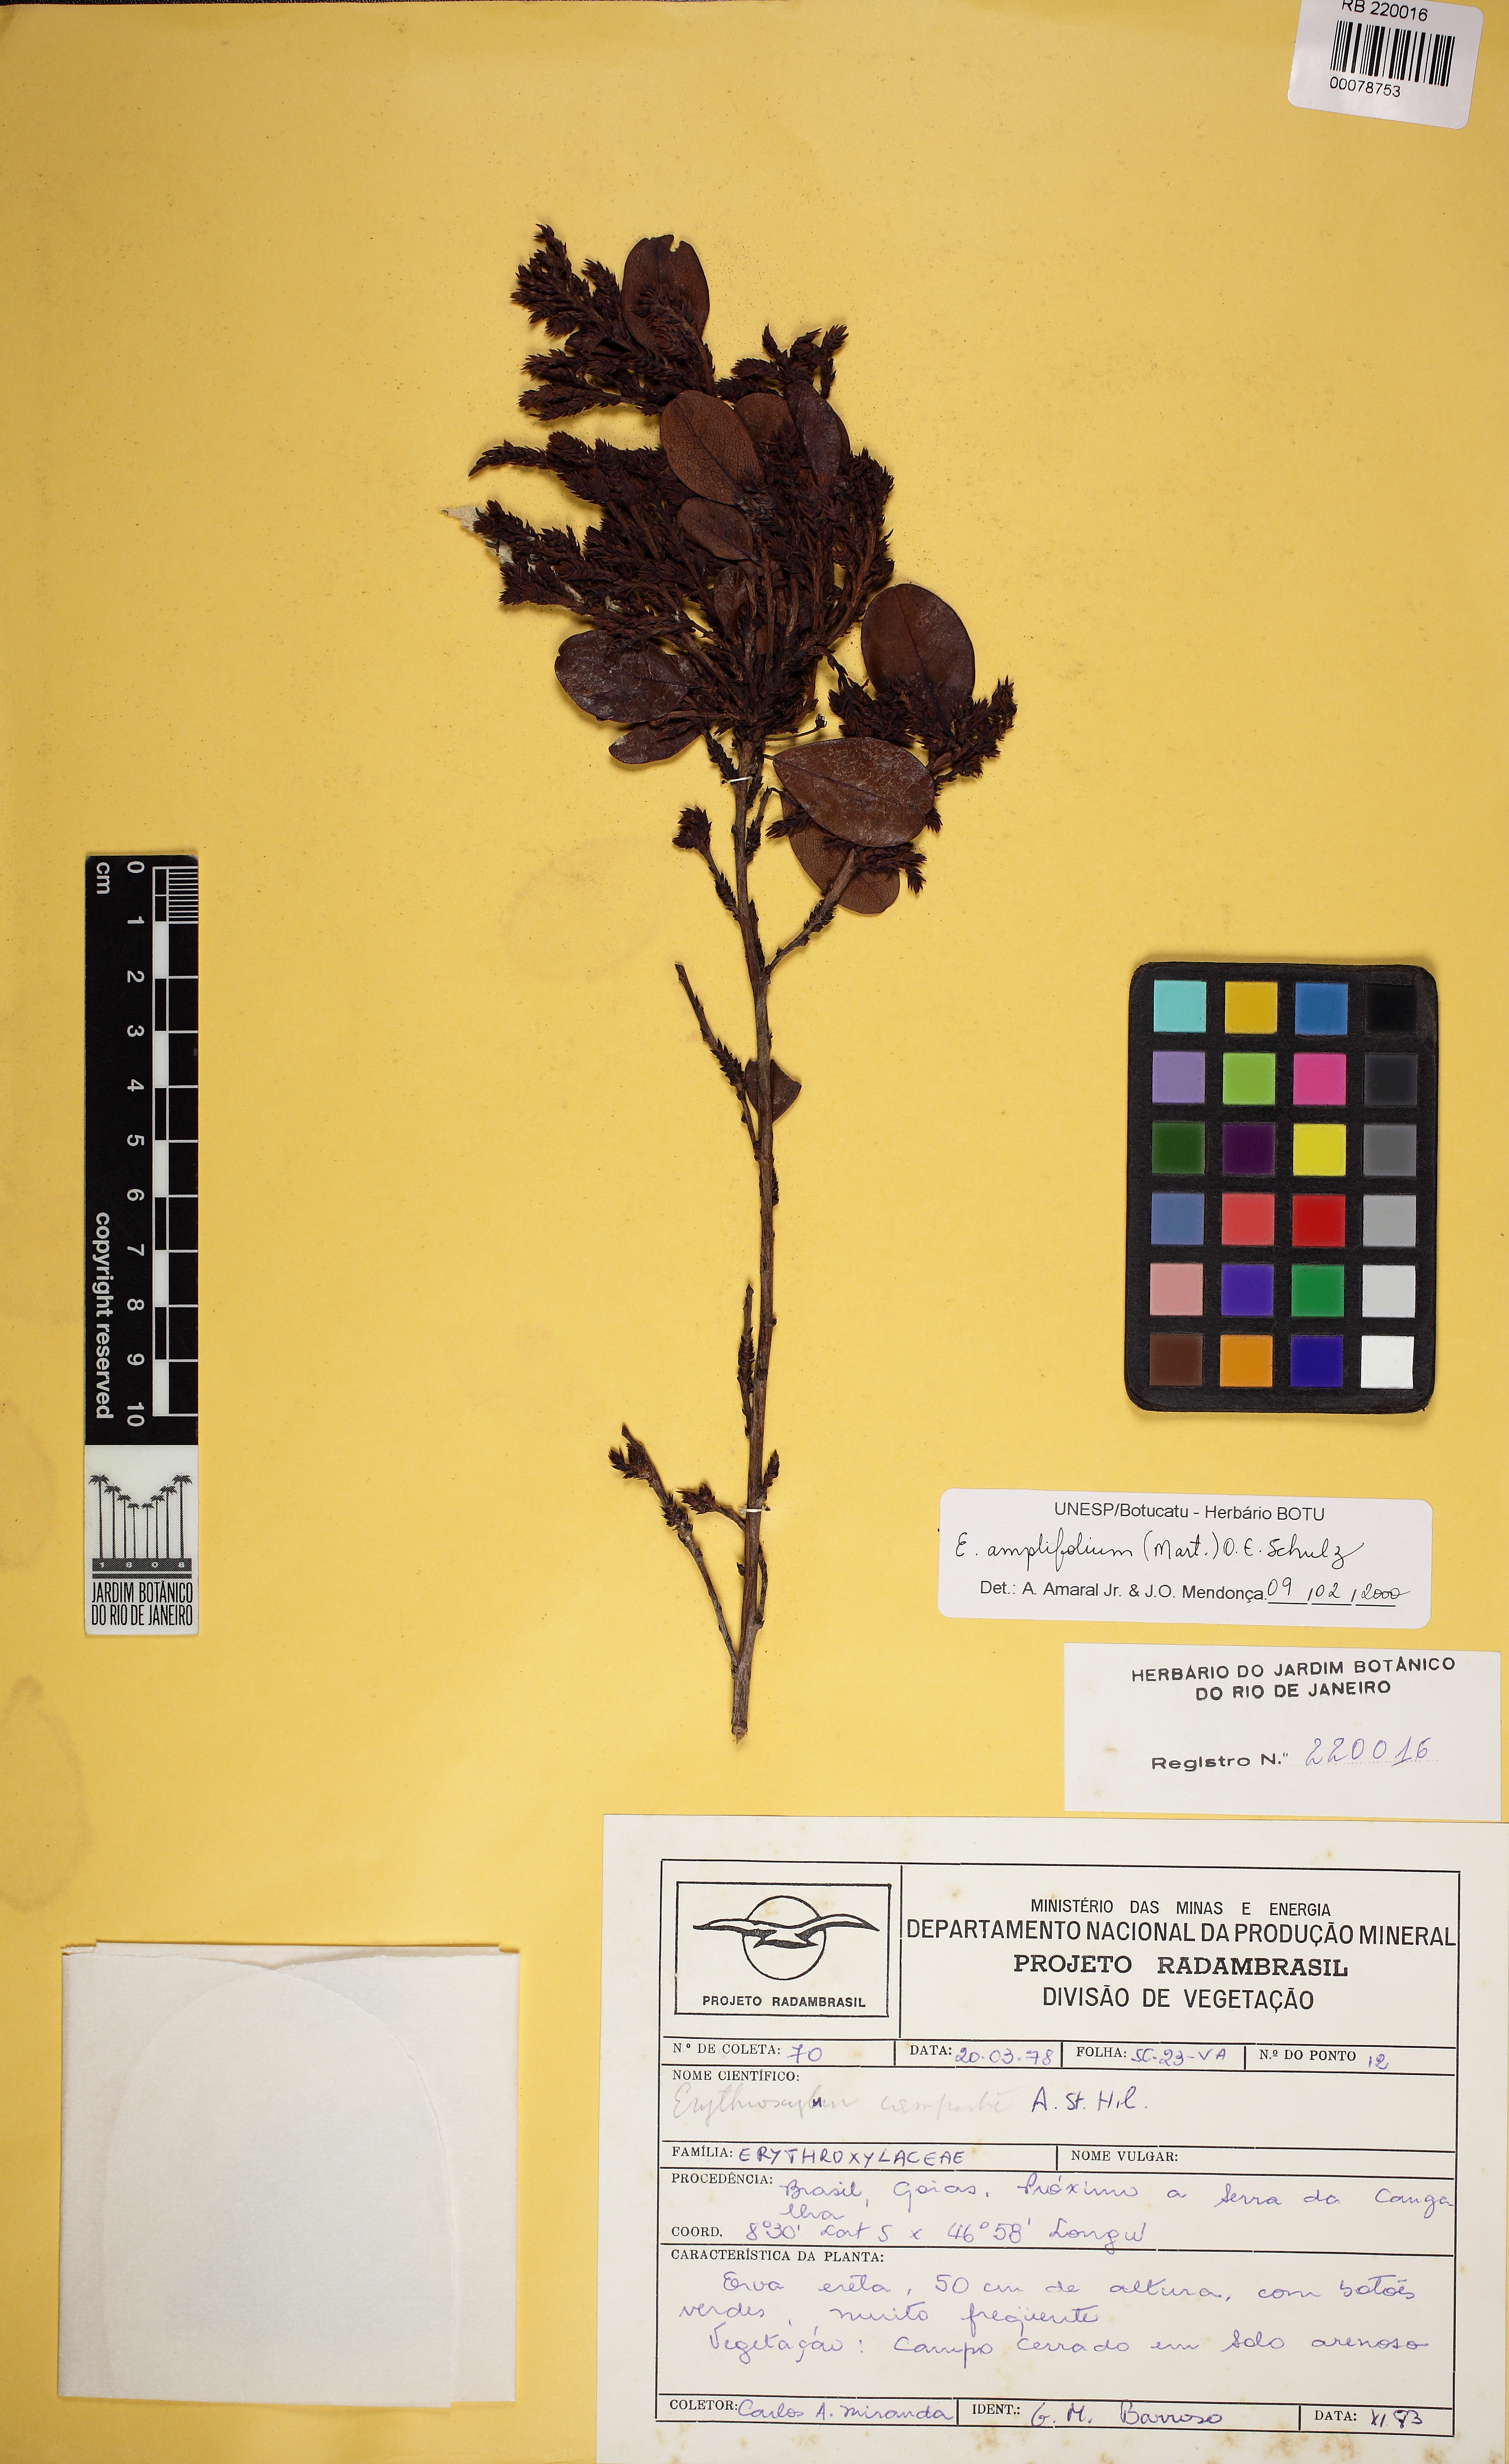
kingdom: Plantae
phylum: Tracheophyta
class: Magnoliopsida
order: Malpighiales
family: Erythroxylaceae
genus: Erythroxylum
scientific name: Erythroxylum umbu
